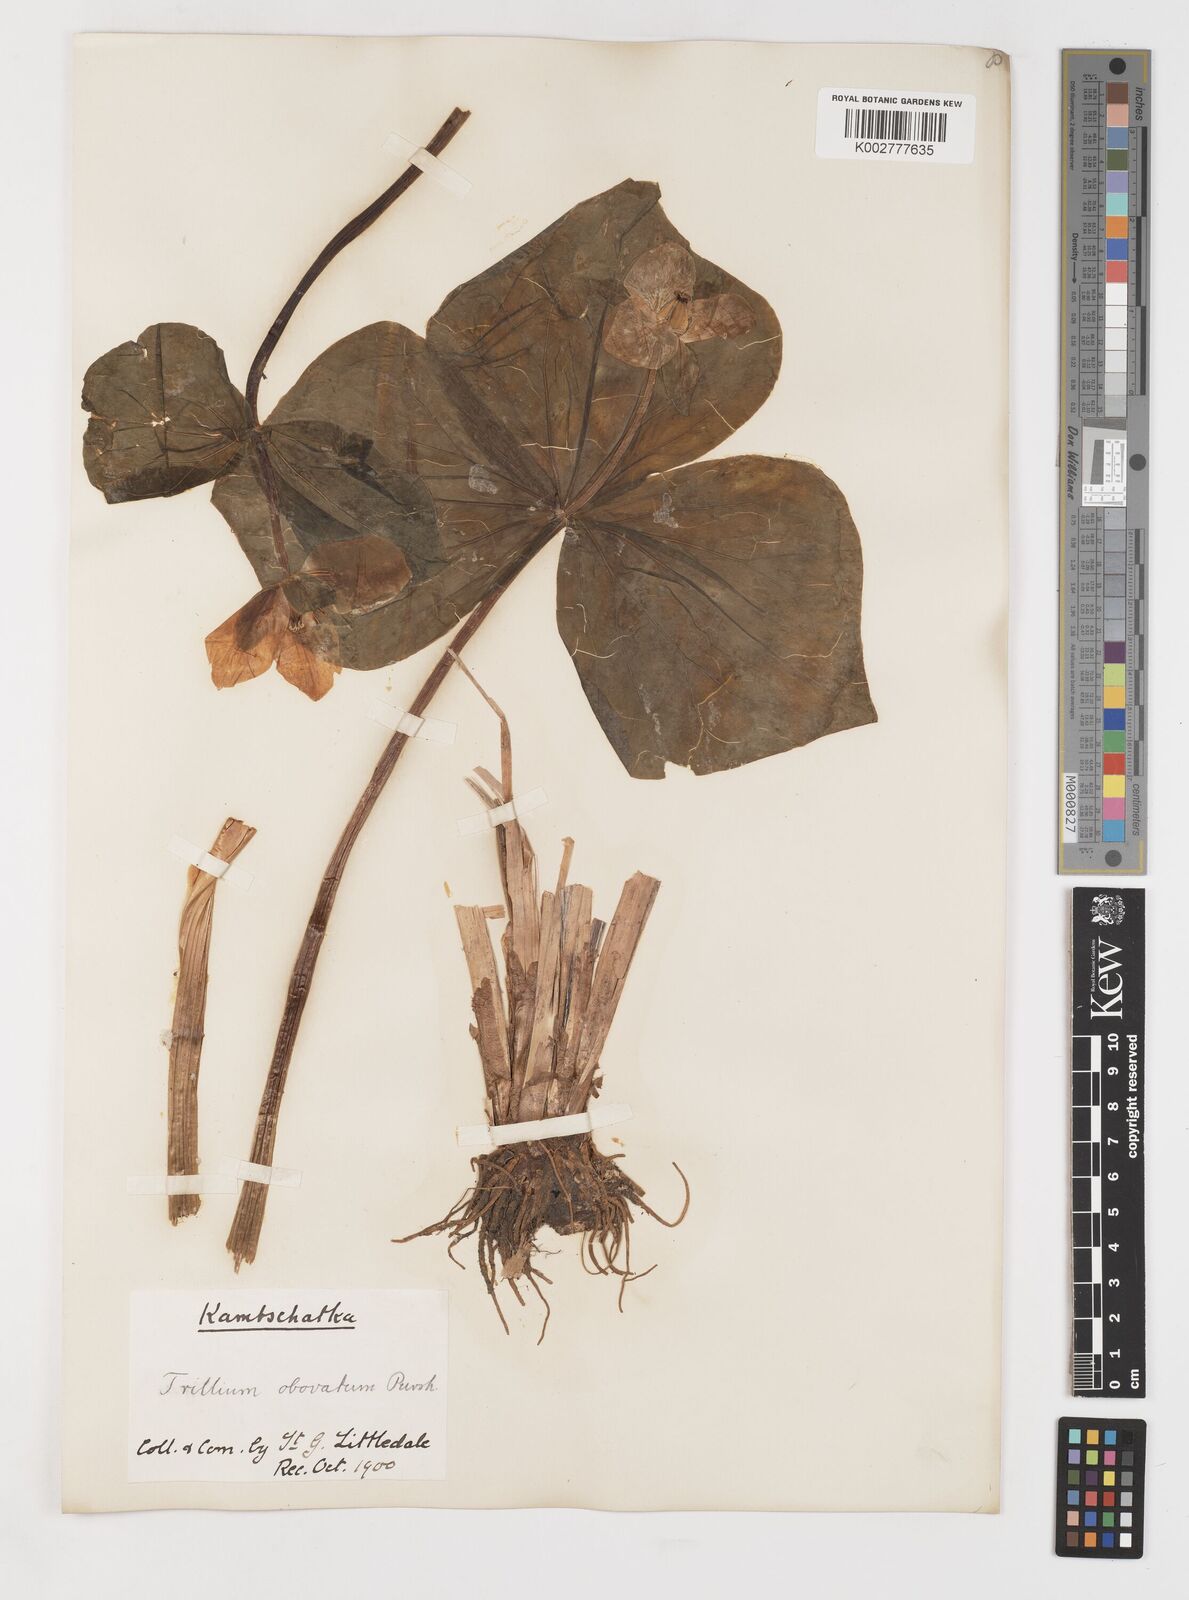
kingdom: Plantae
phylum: Tracheophyta
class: Liliopsida
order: Liliales
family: Melanthiaceae
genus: Trillium
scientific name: Trillium erectum
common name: Purple trillium
